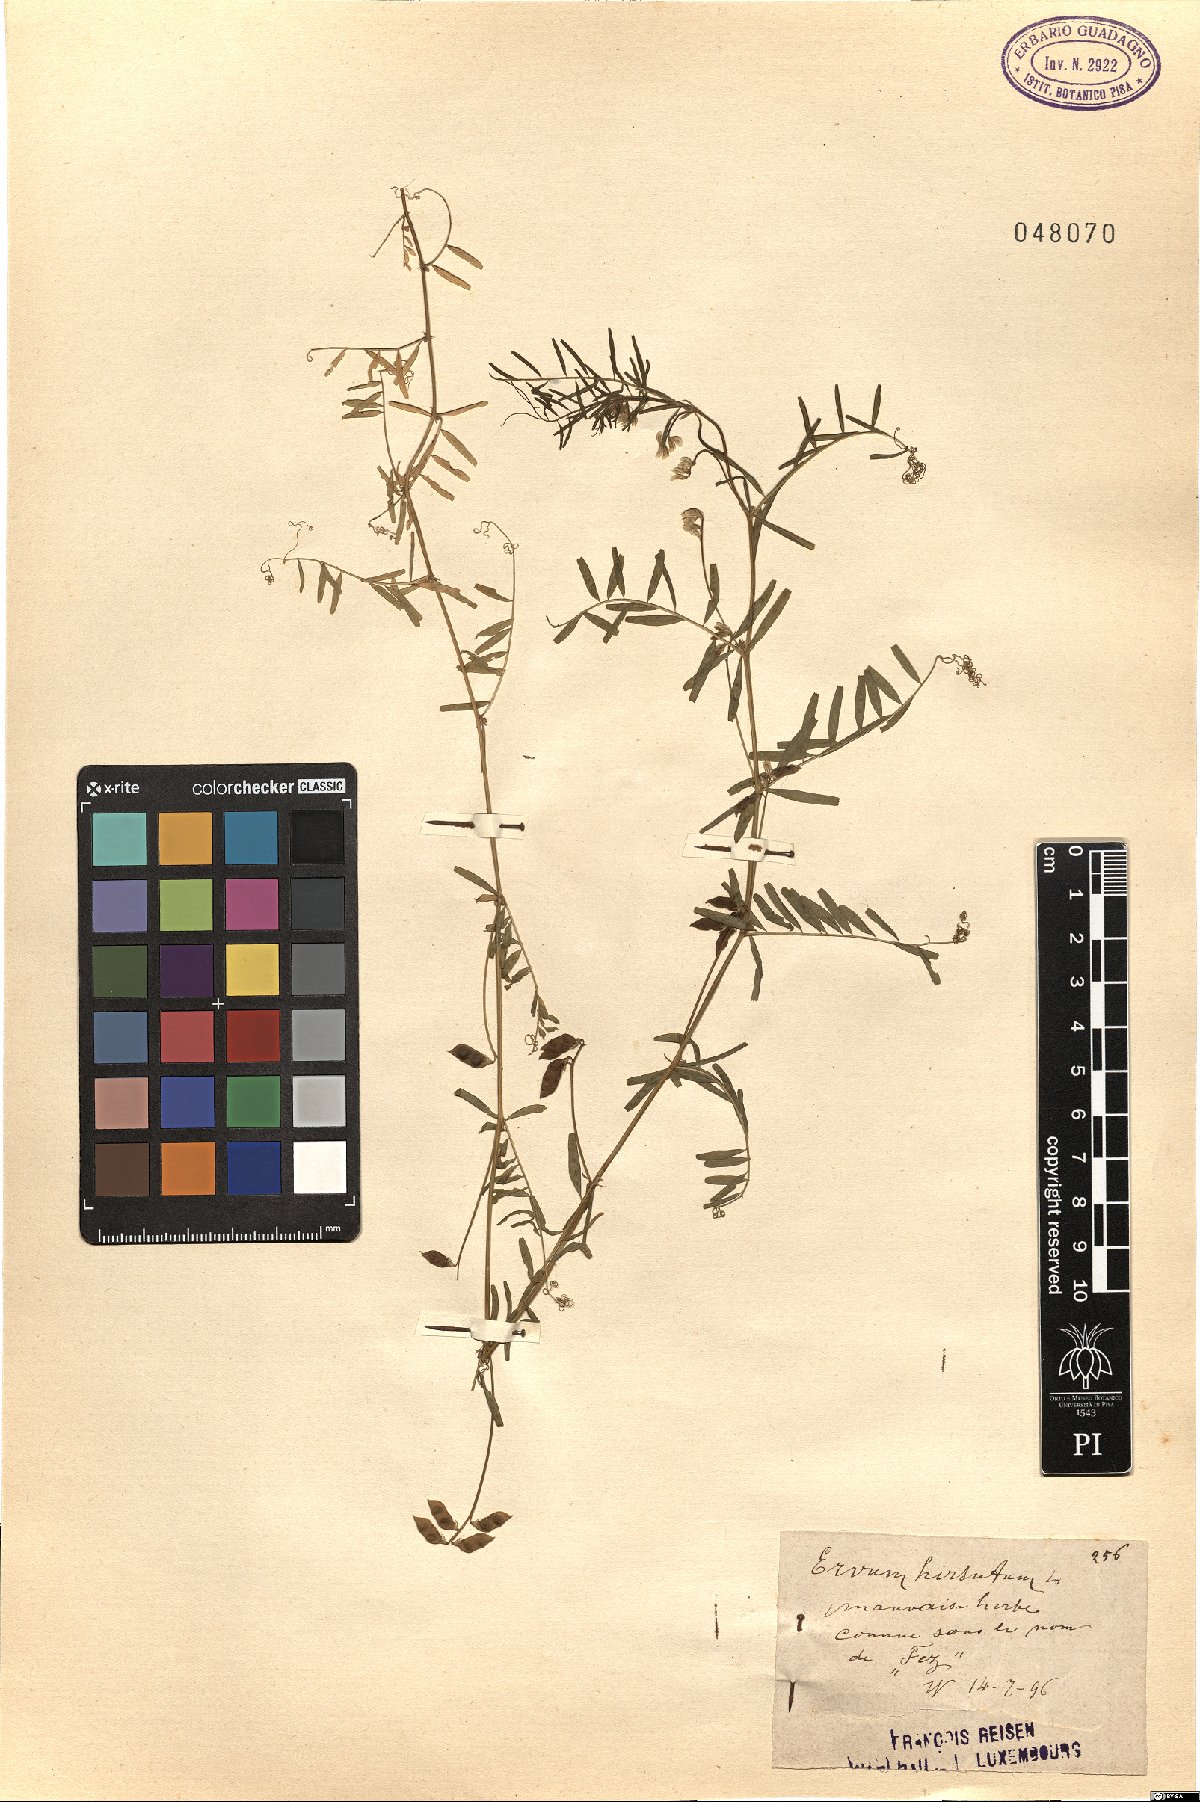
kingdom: Plantae
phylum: Tracheophyta
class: Magnoliopsida
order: Fabales
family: Fabaceae
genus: Vicia
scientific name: Vicia hirsuta
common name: Tiny vetch
